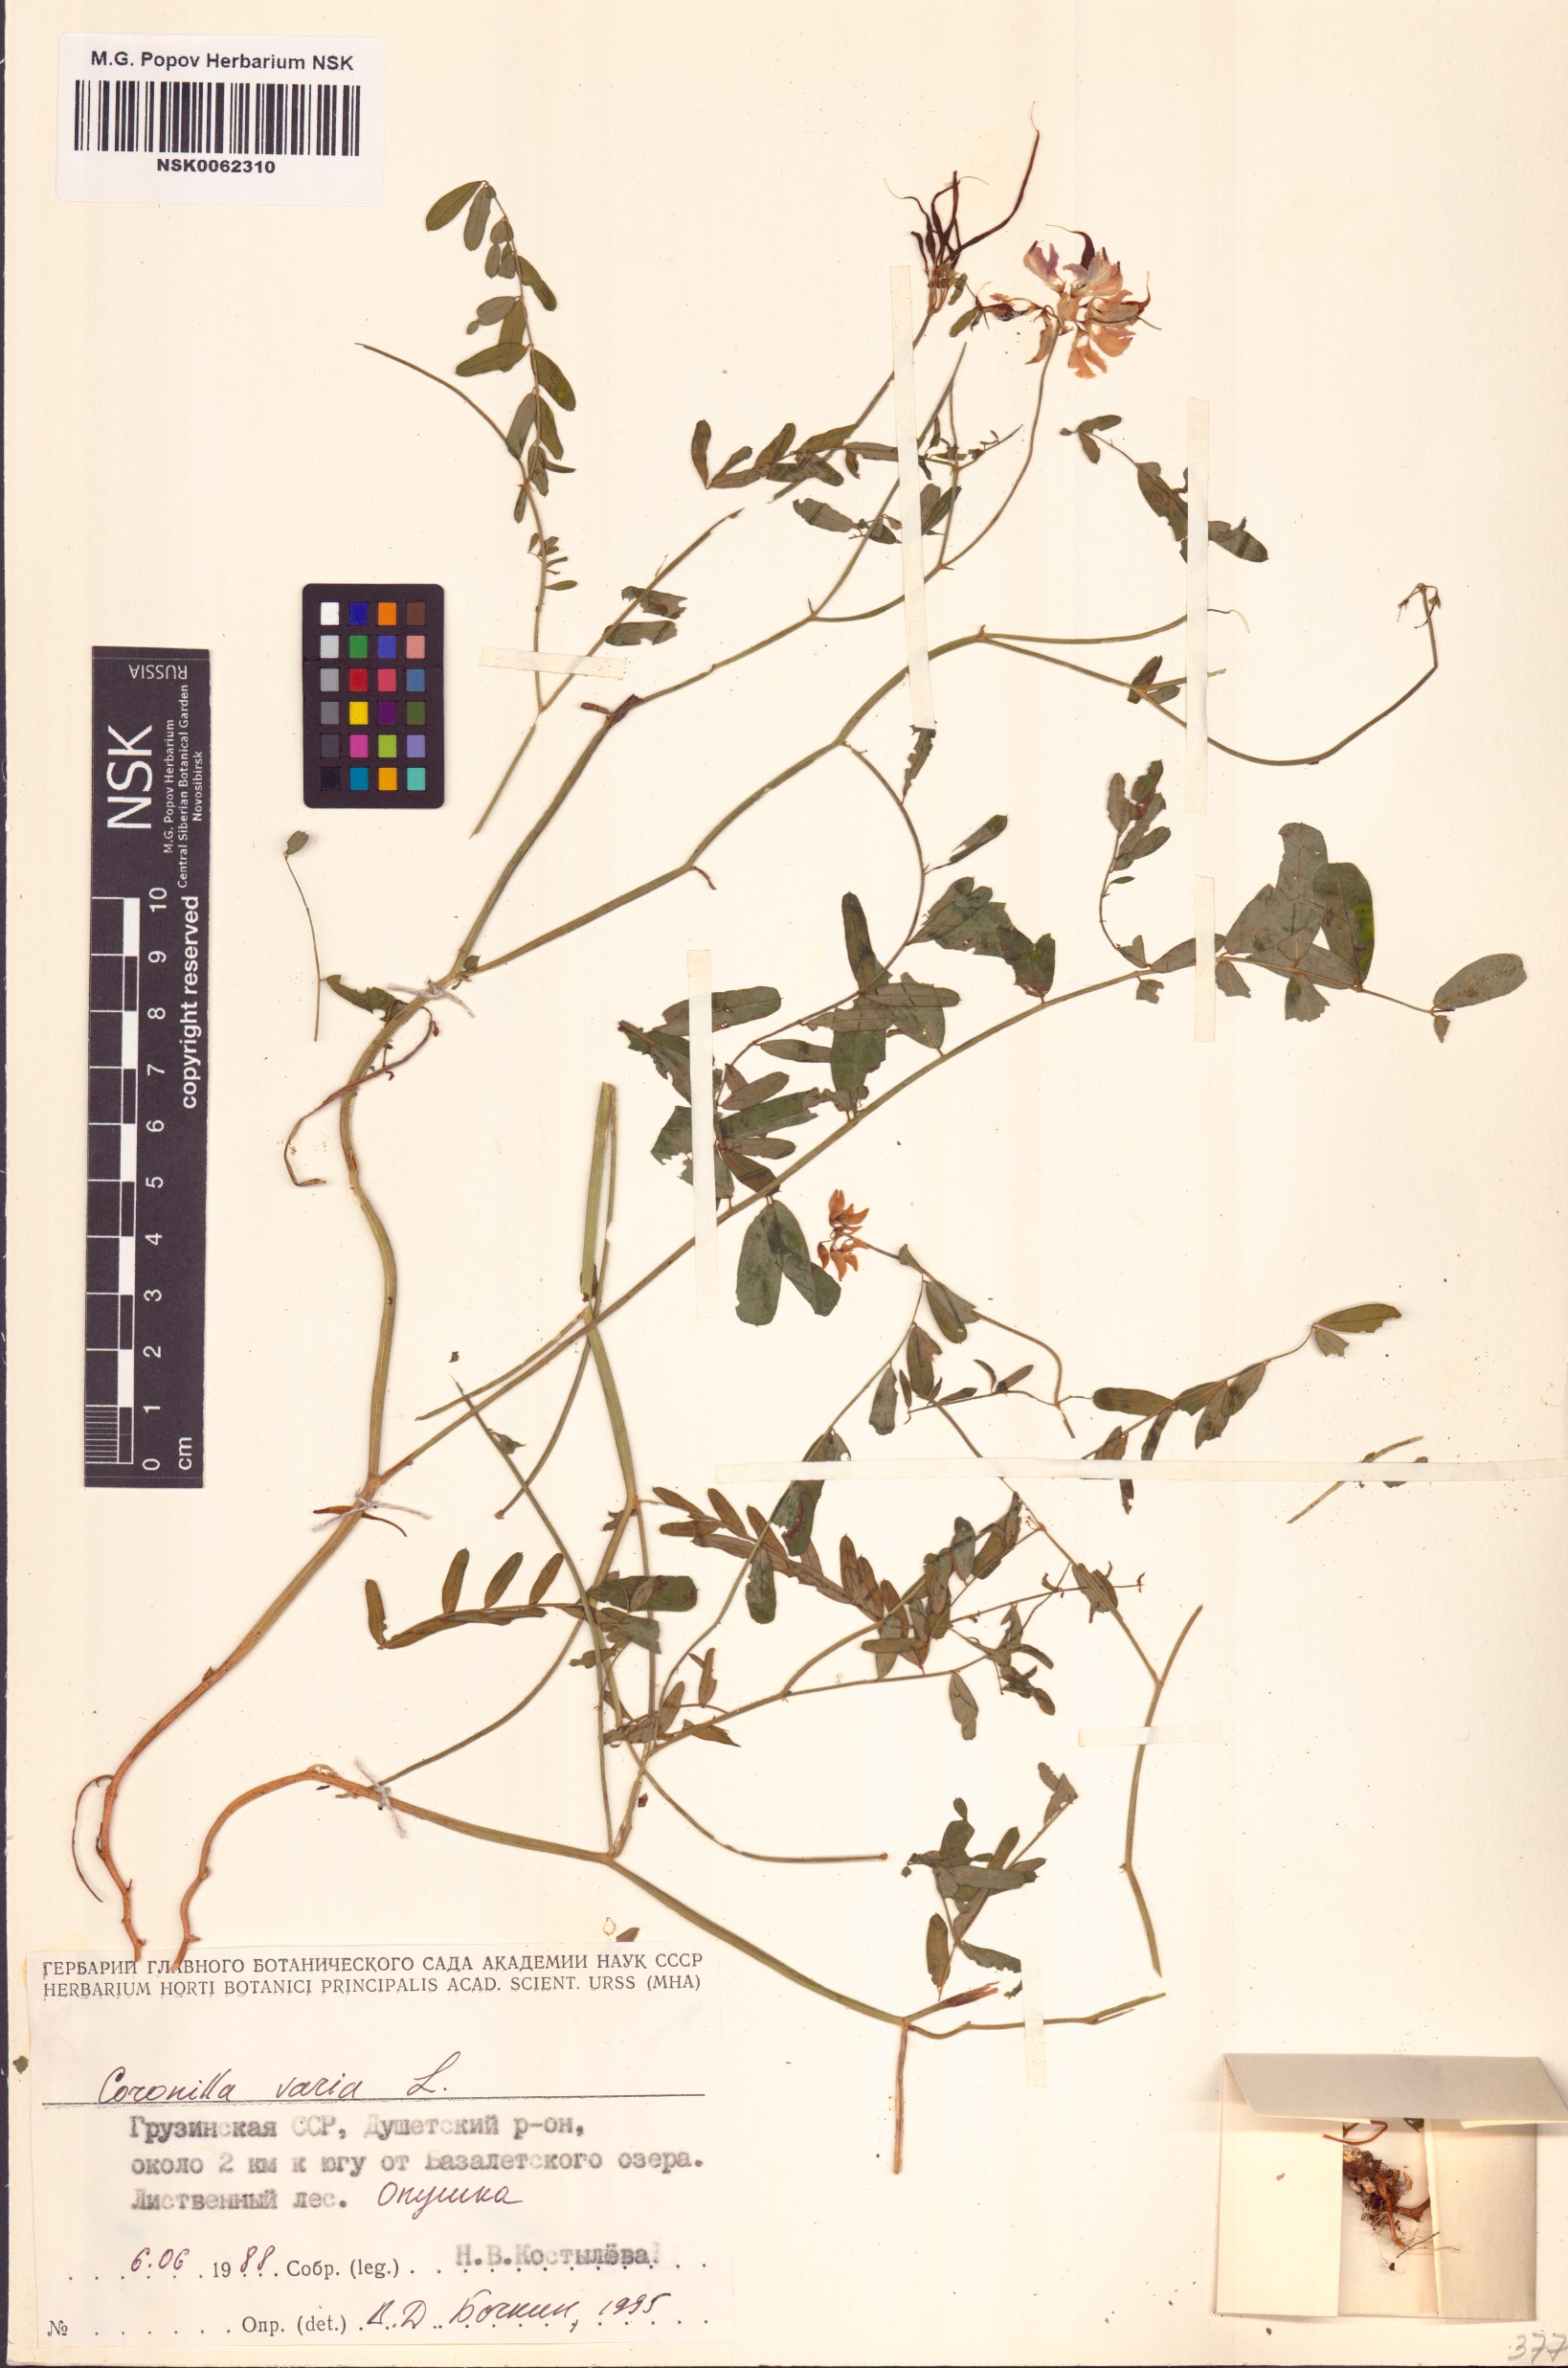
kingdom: Plantae
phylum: Tracheophyta
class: Magnoliopsida
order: Fabales
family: Fabaceae
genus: Coronilla
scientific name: Coronilla varia
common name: Crownvetch
